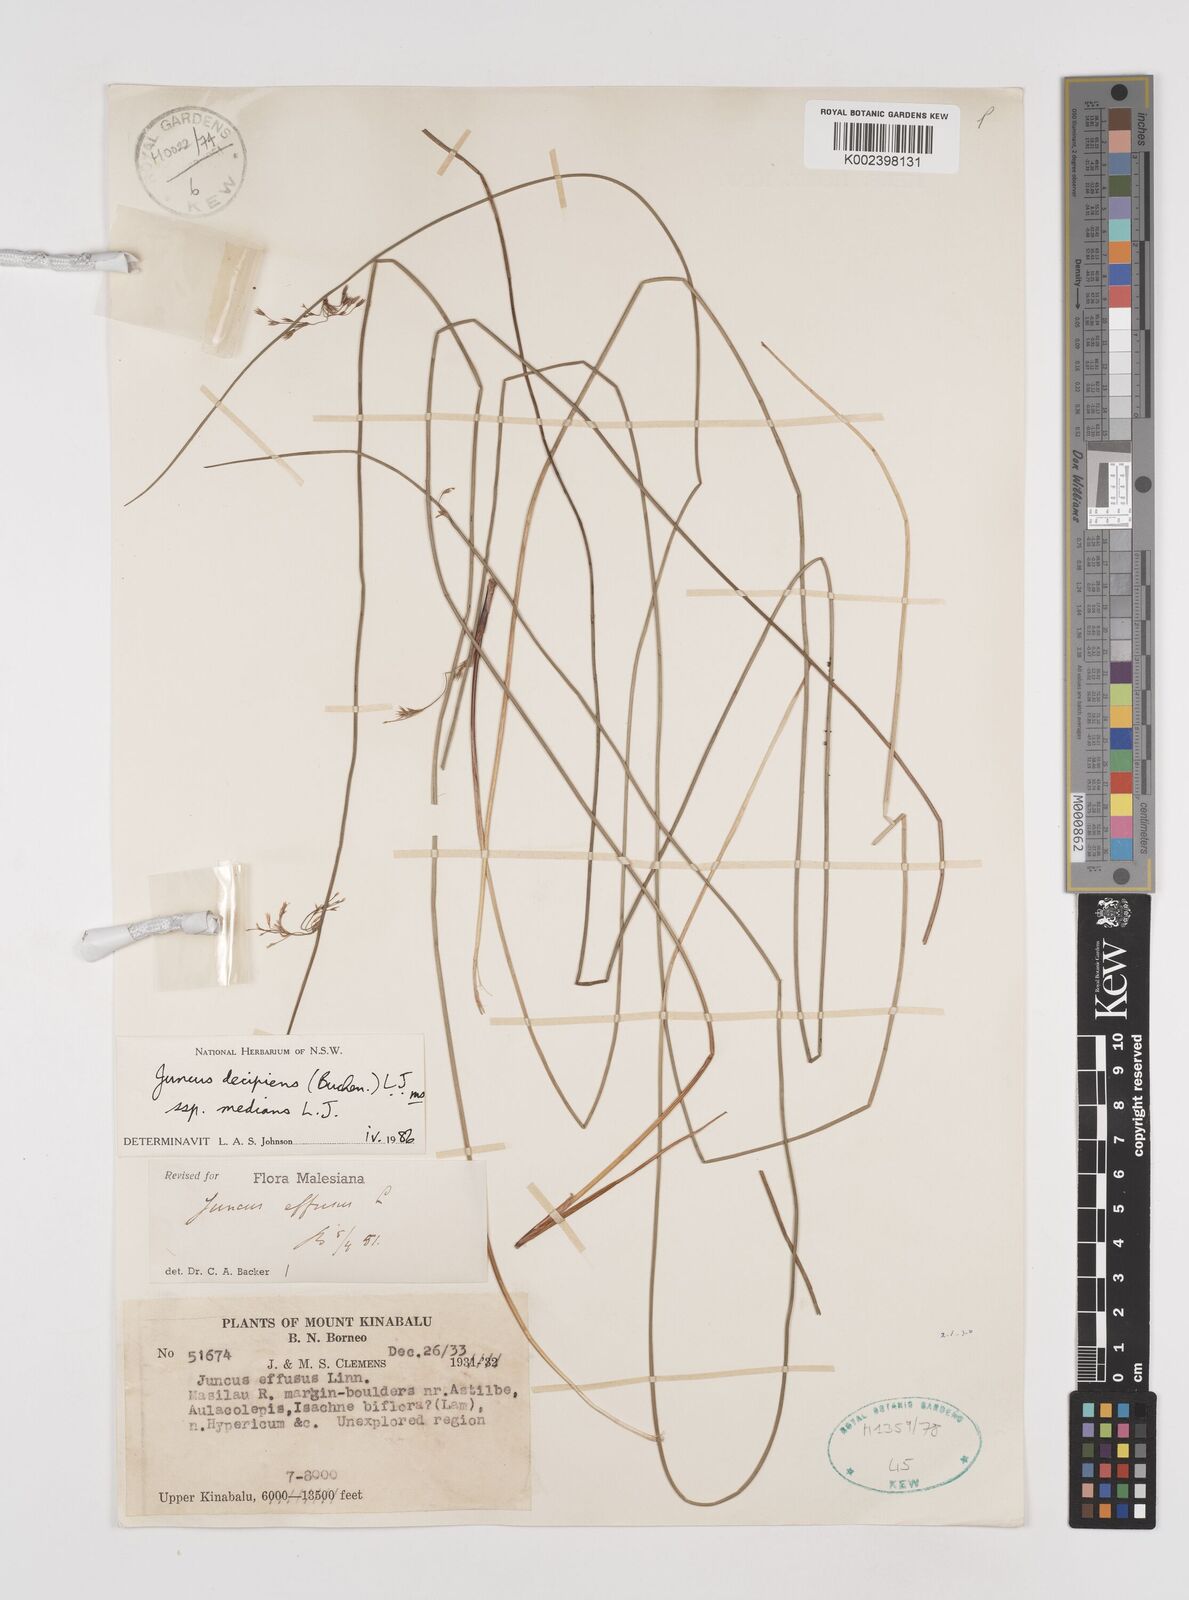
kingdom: Plantae
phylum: Tracheophyta
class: Liliopsida
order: Poales
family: Juncaceae
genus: Juncus
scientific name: Juncus decipiens
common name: Lamp rush
